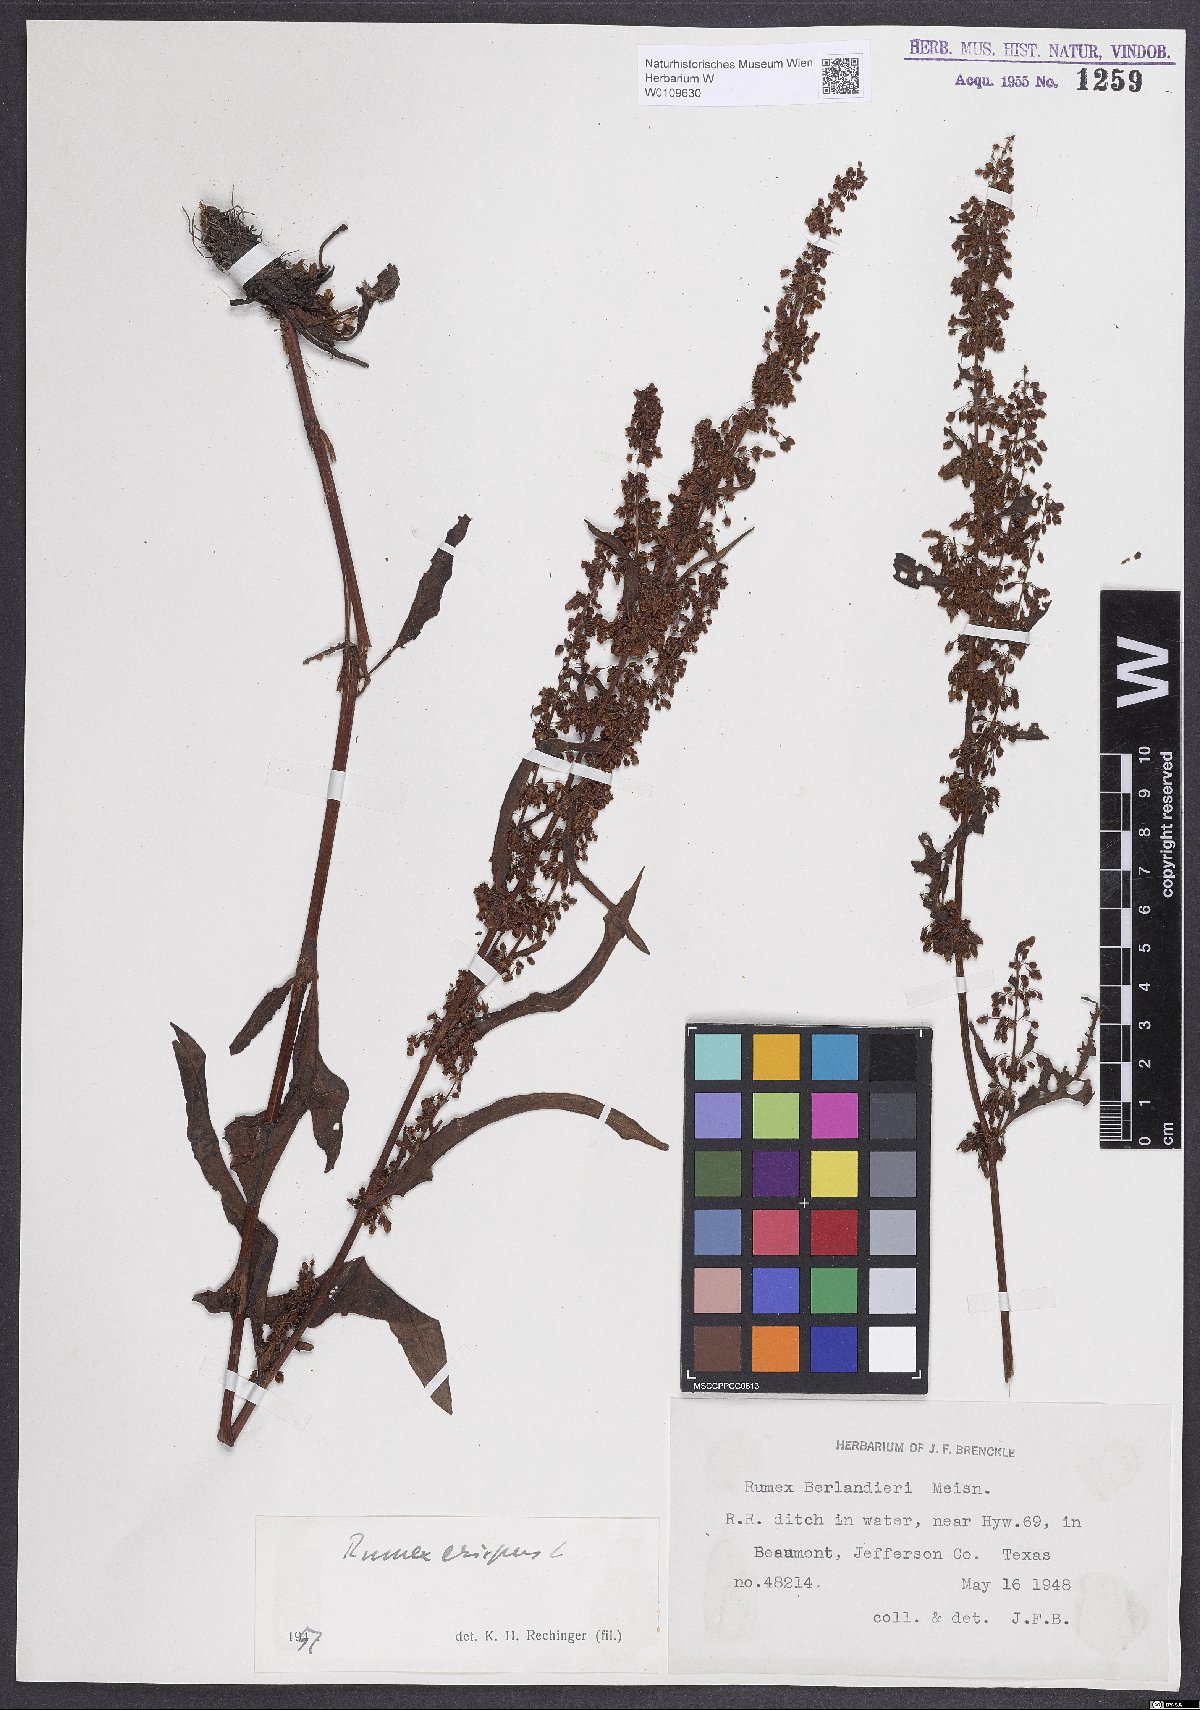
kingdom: Plantae
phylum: Tracheophyta
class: Magnoliopsida
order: Caryophyllales
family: Polygonaceae
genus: Rumex
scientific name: Rumex crispus
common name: Curled dock
